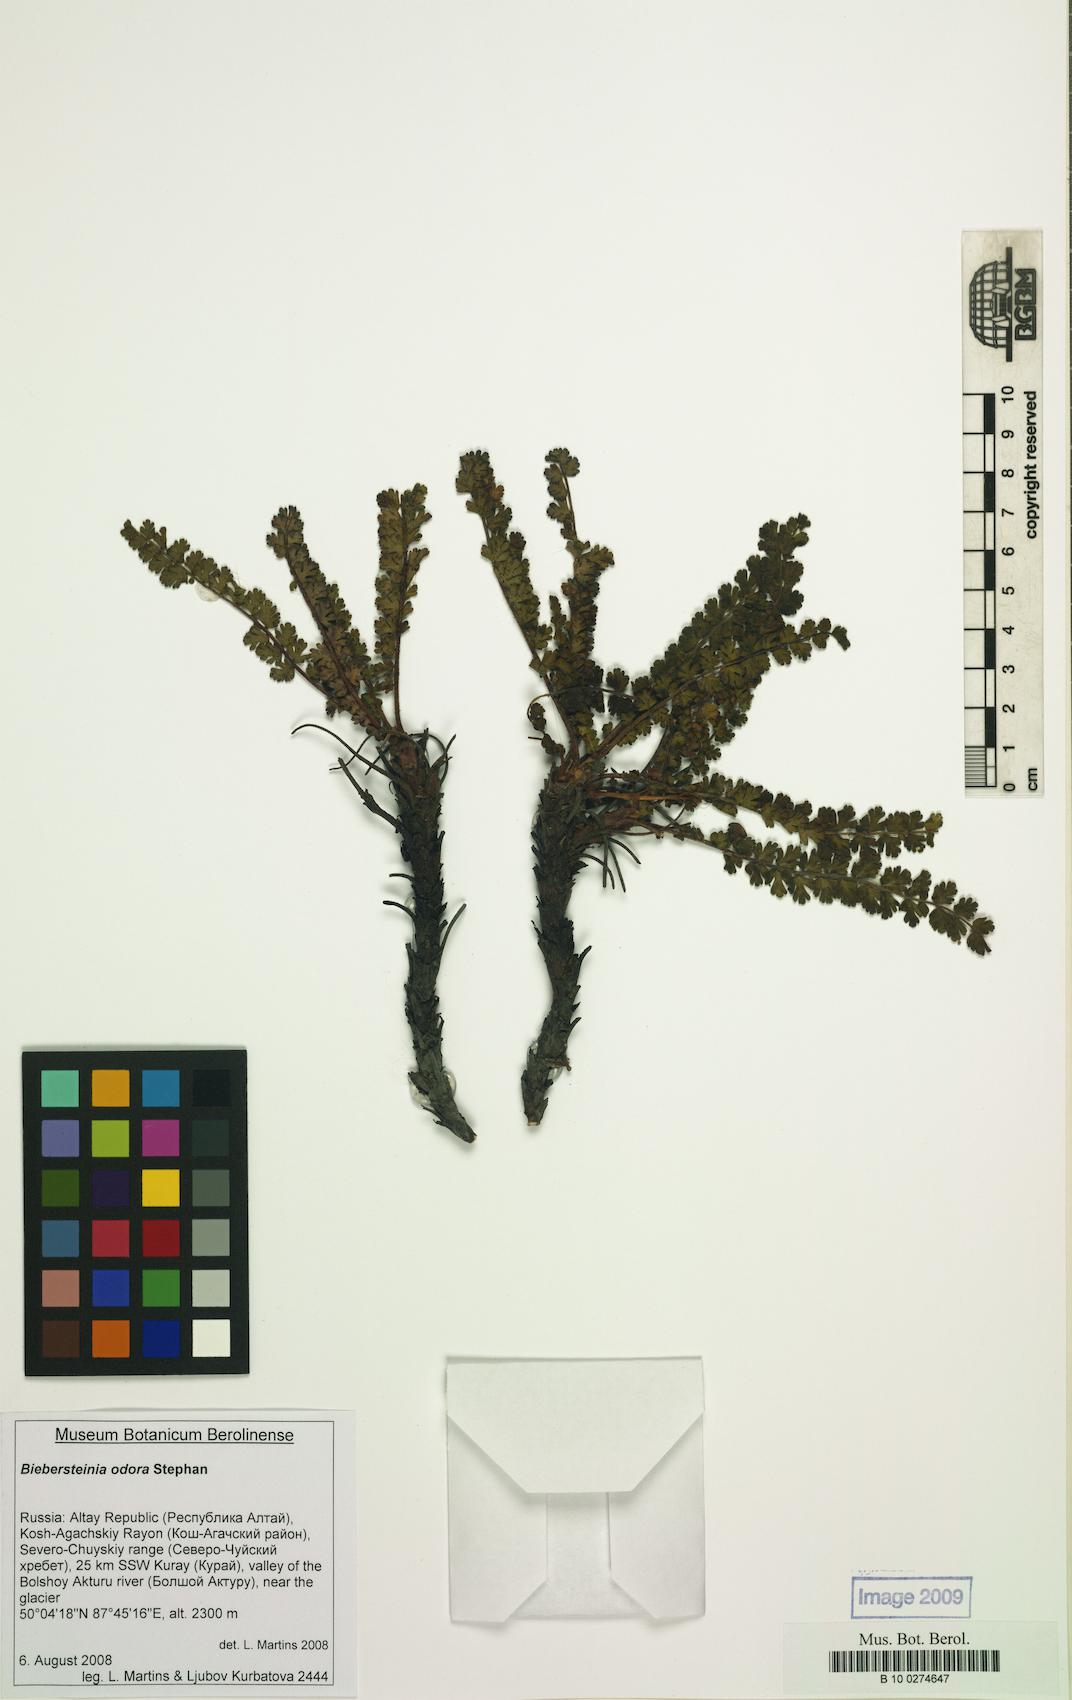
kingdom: Plantae
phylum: Tracheophyta
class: Magnoliopsida
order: Sapindales
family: Biebersteiniaceae
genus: Biebersteinia
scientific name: Biebersteinia odora
